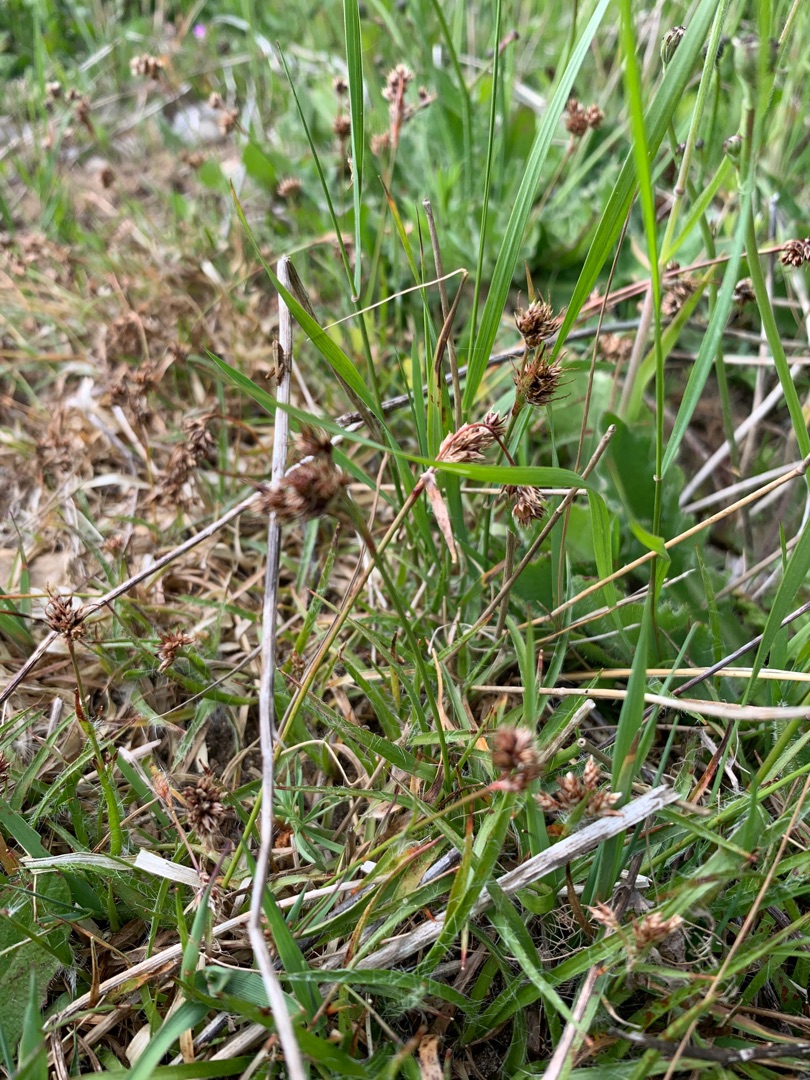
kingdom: Plantae
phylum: Tracheophyta
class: Liliopsida
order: Poales
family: Juncaceae
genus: Luzula
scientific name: Luzula campestris
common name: Mark-frytle
